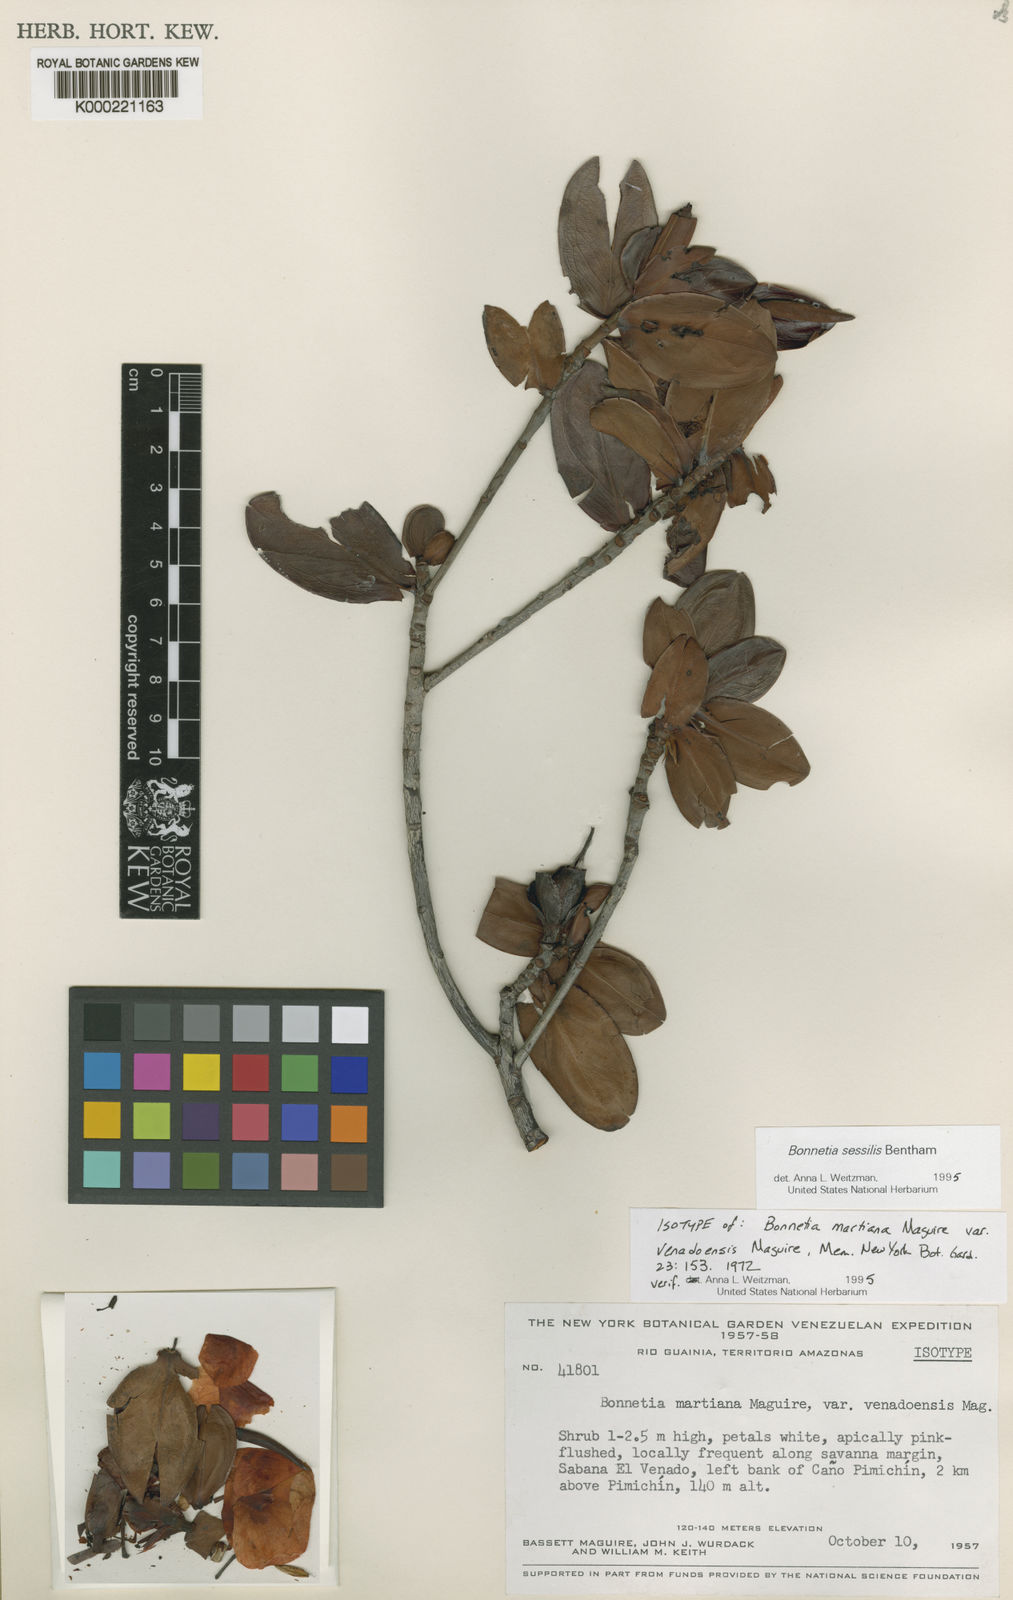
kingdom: Plantae
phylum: Tracheophyta
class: Magnoliopsida
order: Malpighiales
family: Bonnetiaceae
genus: Bonnetia
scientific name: Bonnetia sessilis
